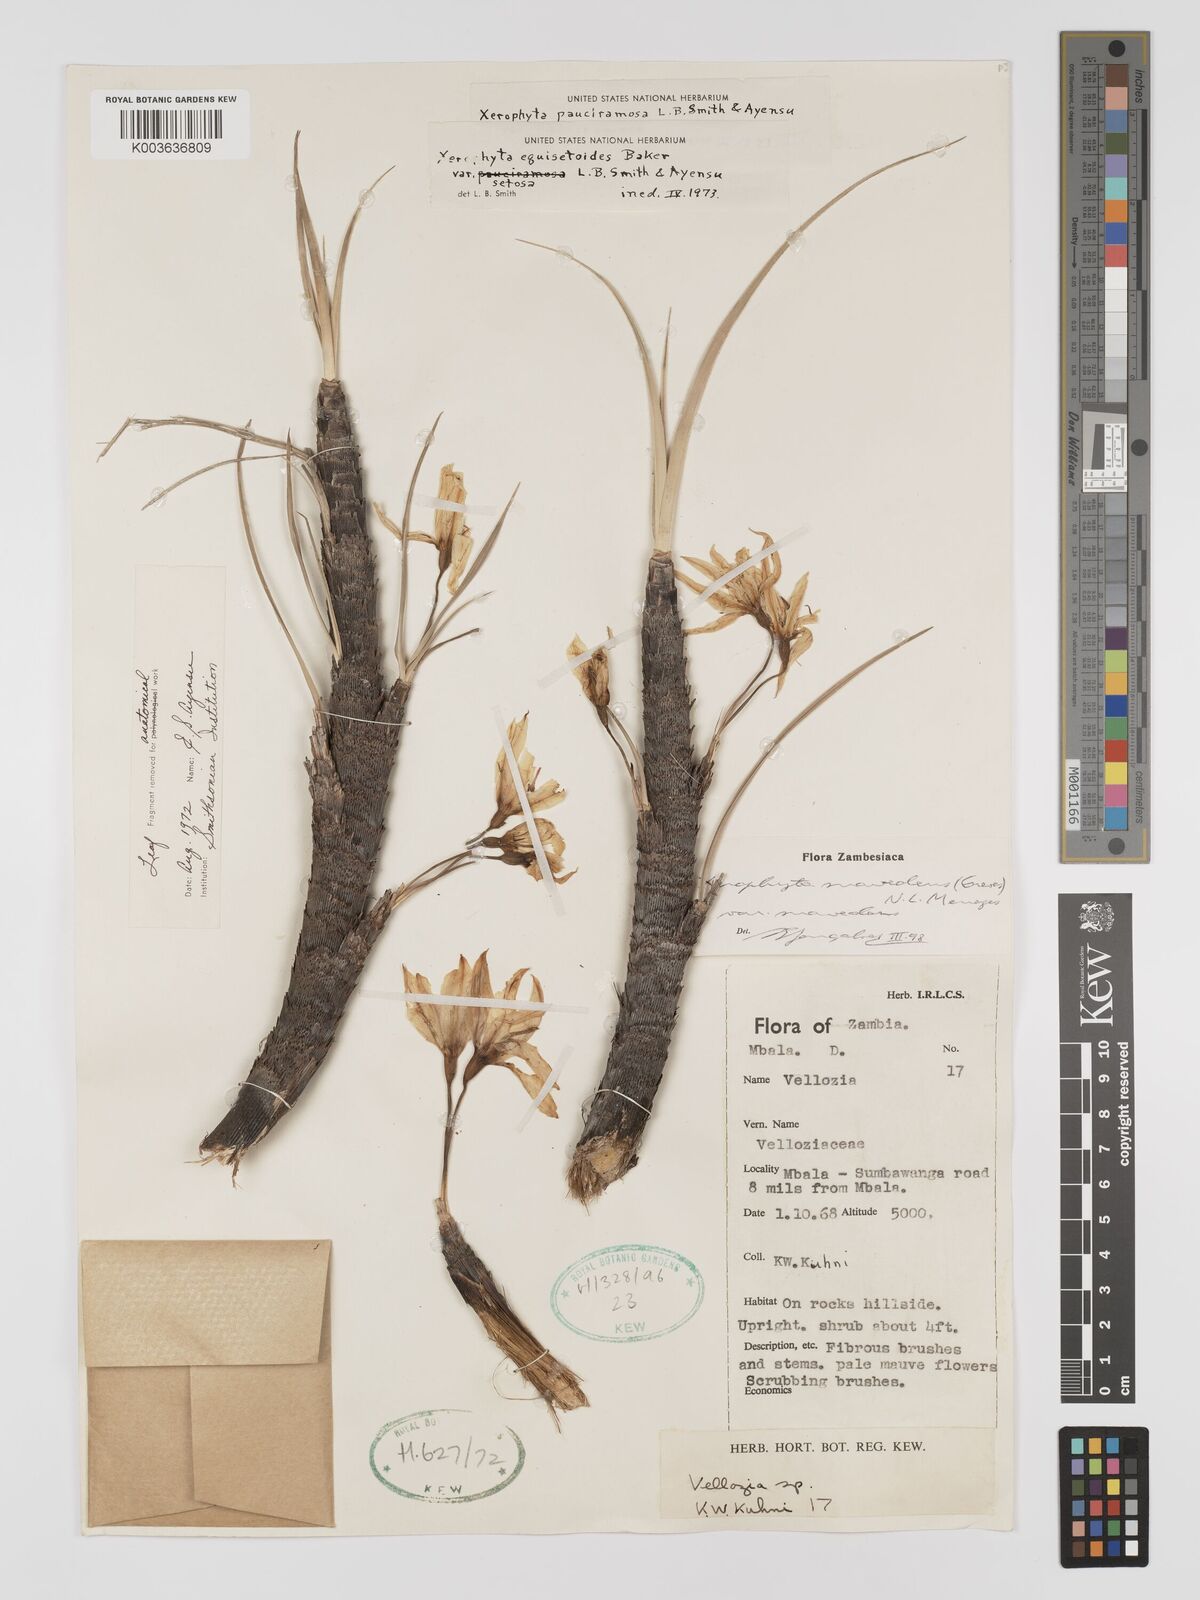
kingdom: Plantae
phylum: Tracheophyta
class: Liliopsida
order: Pandanales
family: Velloziaceae
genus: Xerophyta
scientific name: Xerophyta suaveolens
